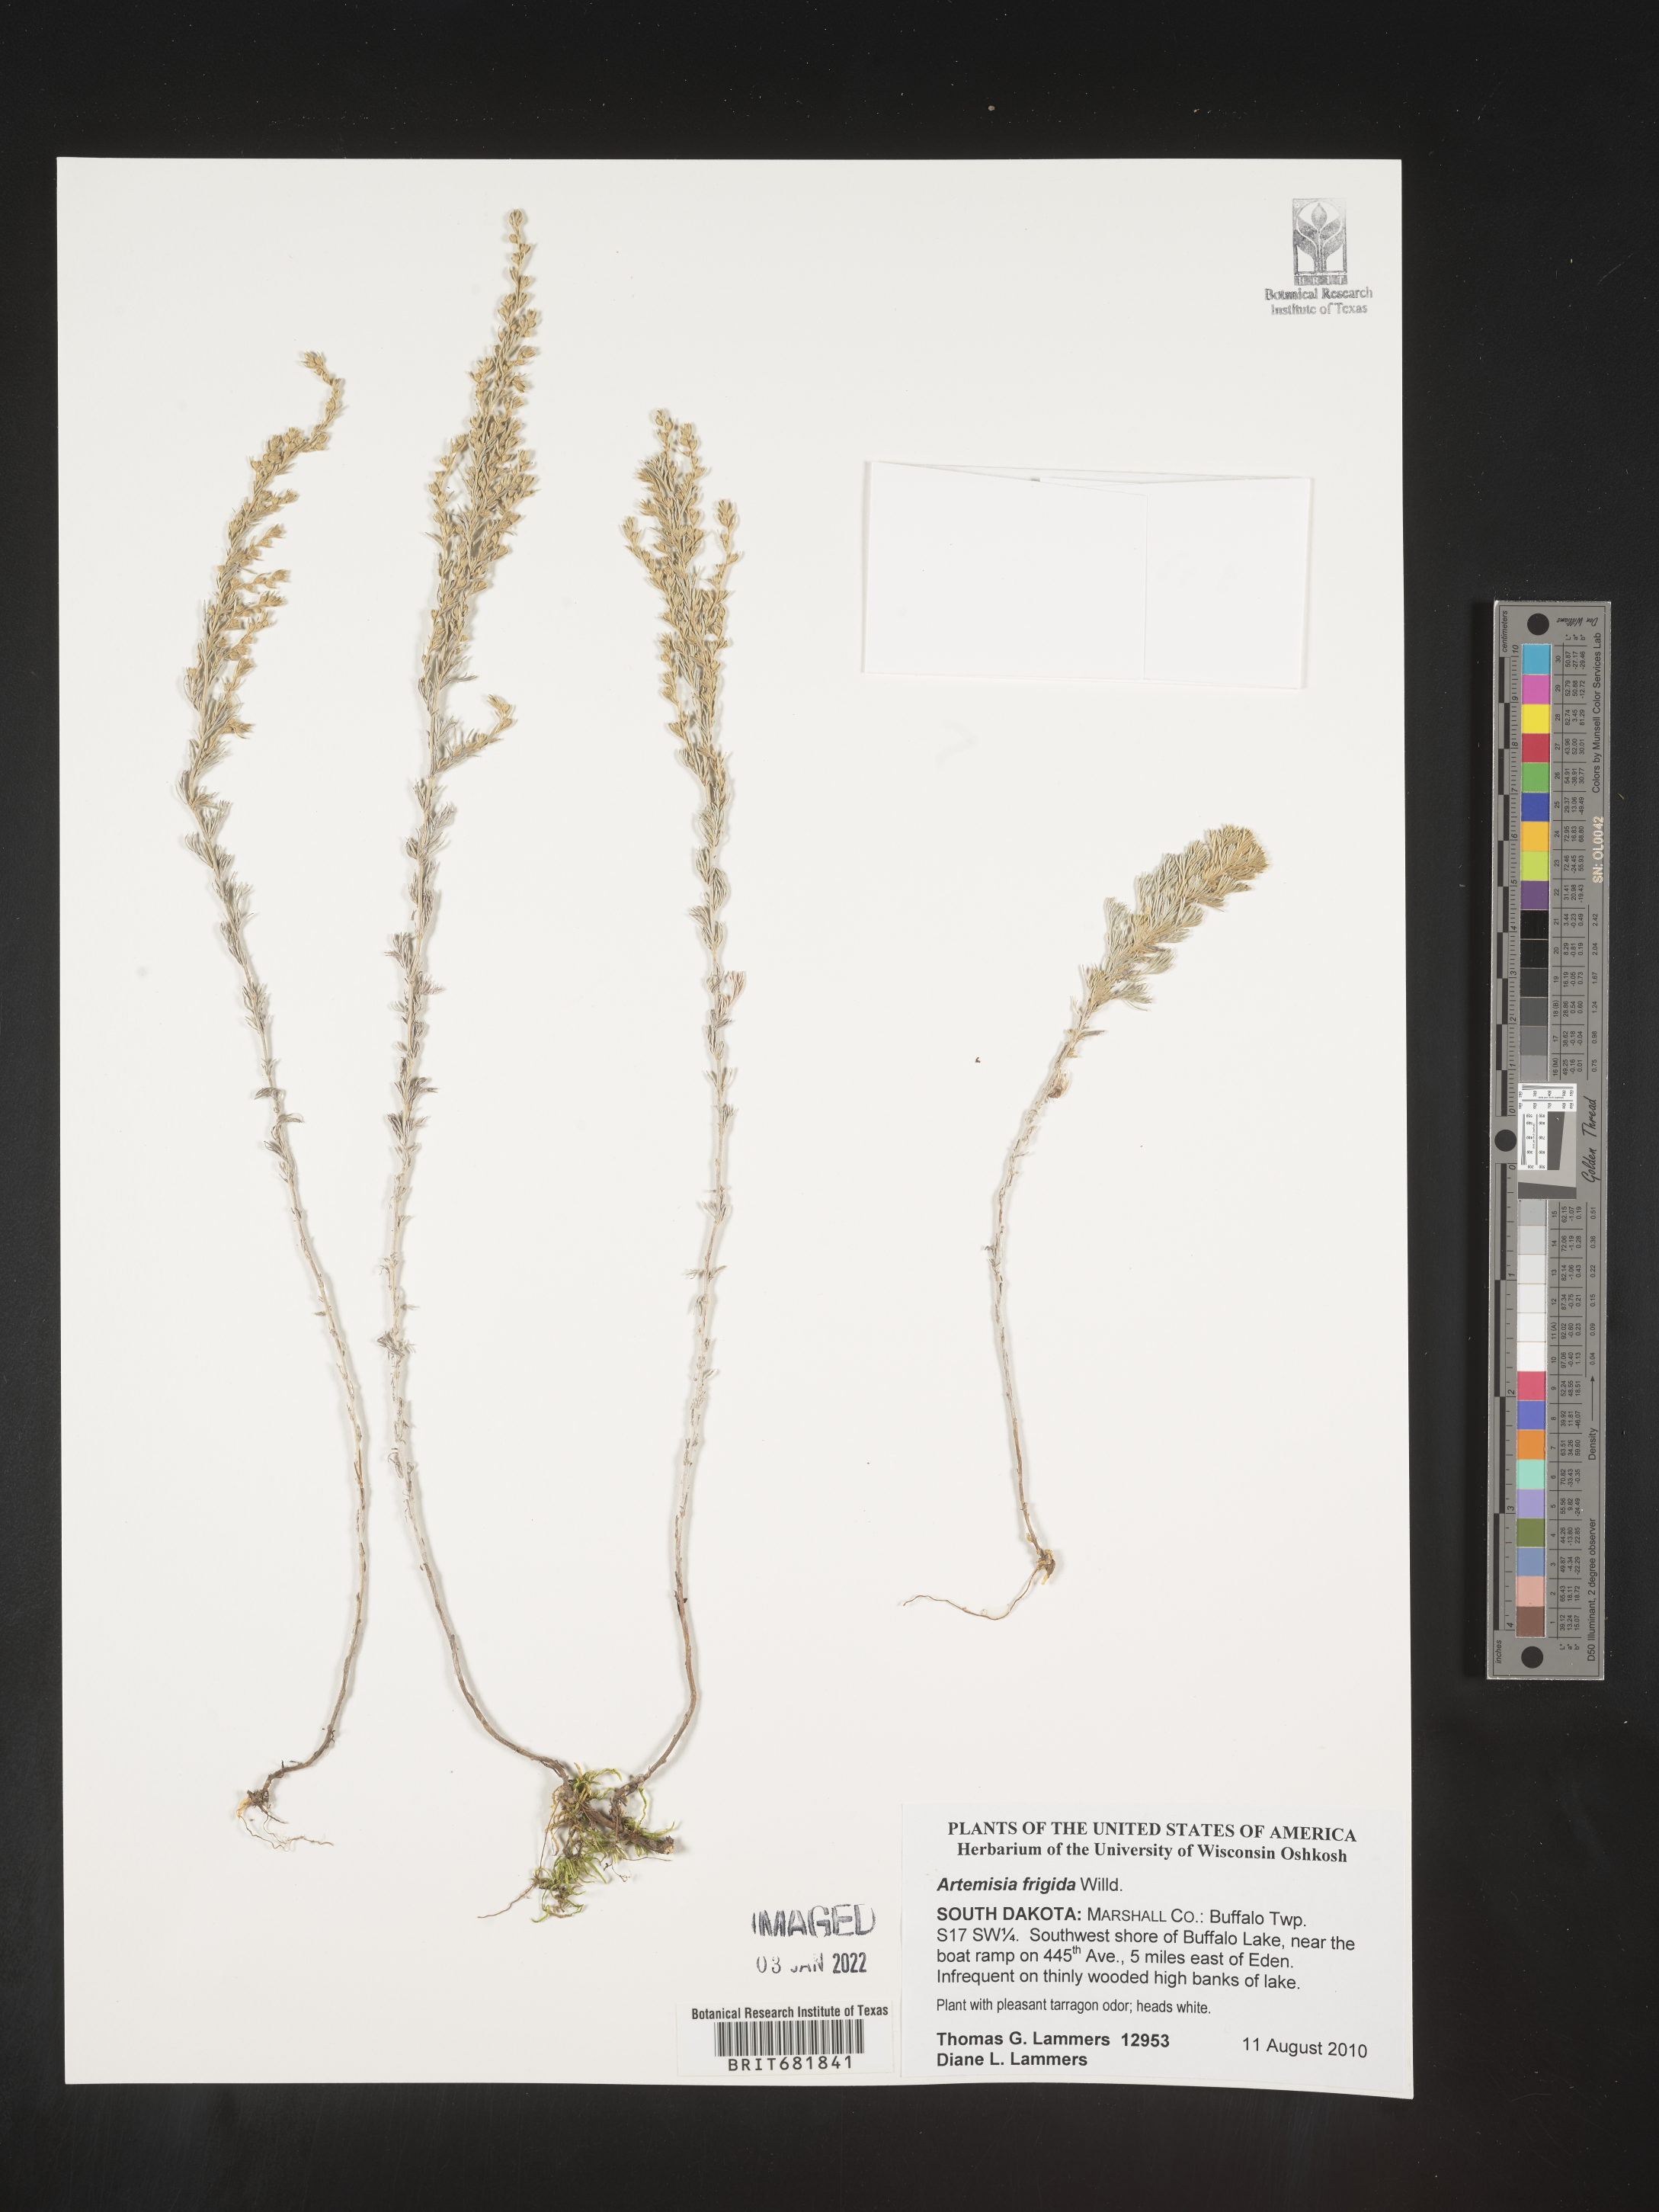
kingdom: Plantae
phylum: Tracheophyta
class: Magnoliopsida
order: Asterales
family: Asteraceae
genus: Artemisia
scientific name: Artemisia frigida
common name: Prairie sagewort
